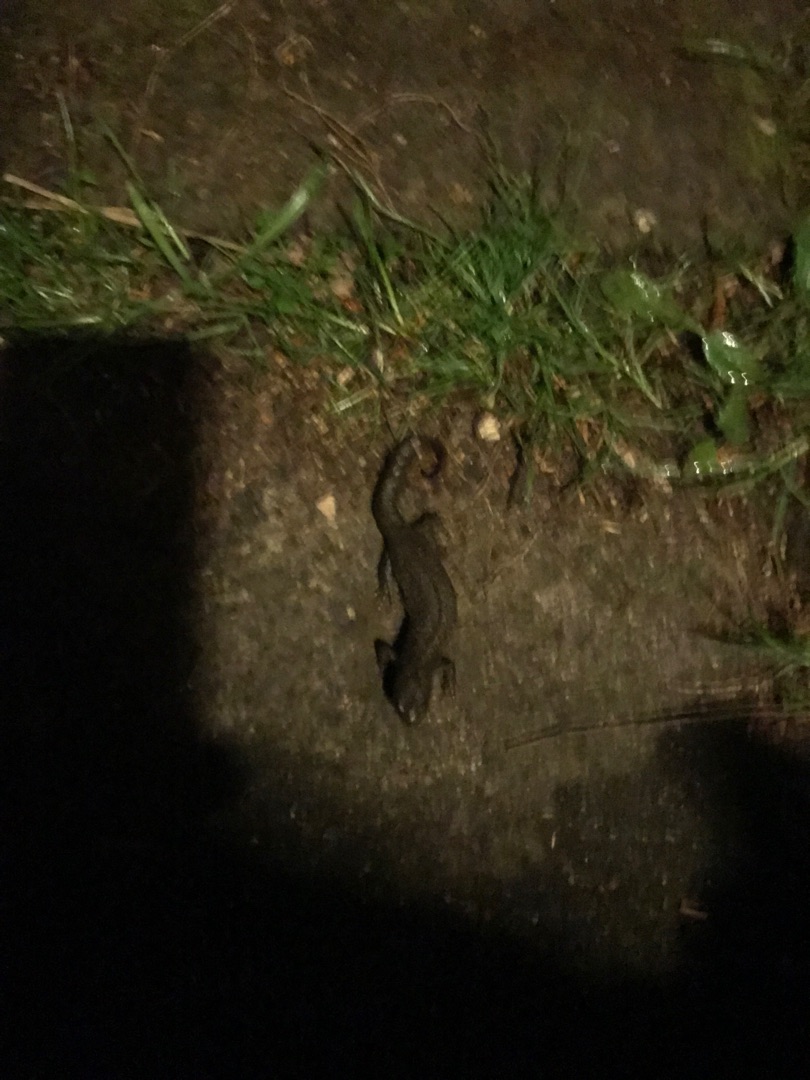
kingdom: Animalia
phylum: Chordata
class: Amphibia
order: Caudata
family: Salamandridae
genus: Triturus
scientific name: Triturus cristatus
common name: Stor vandsalamander
